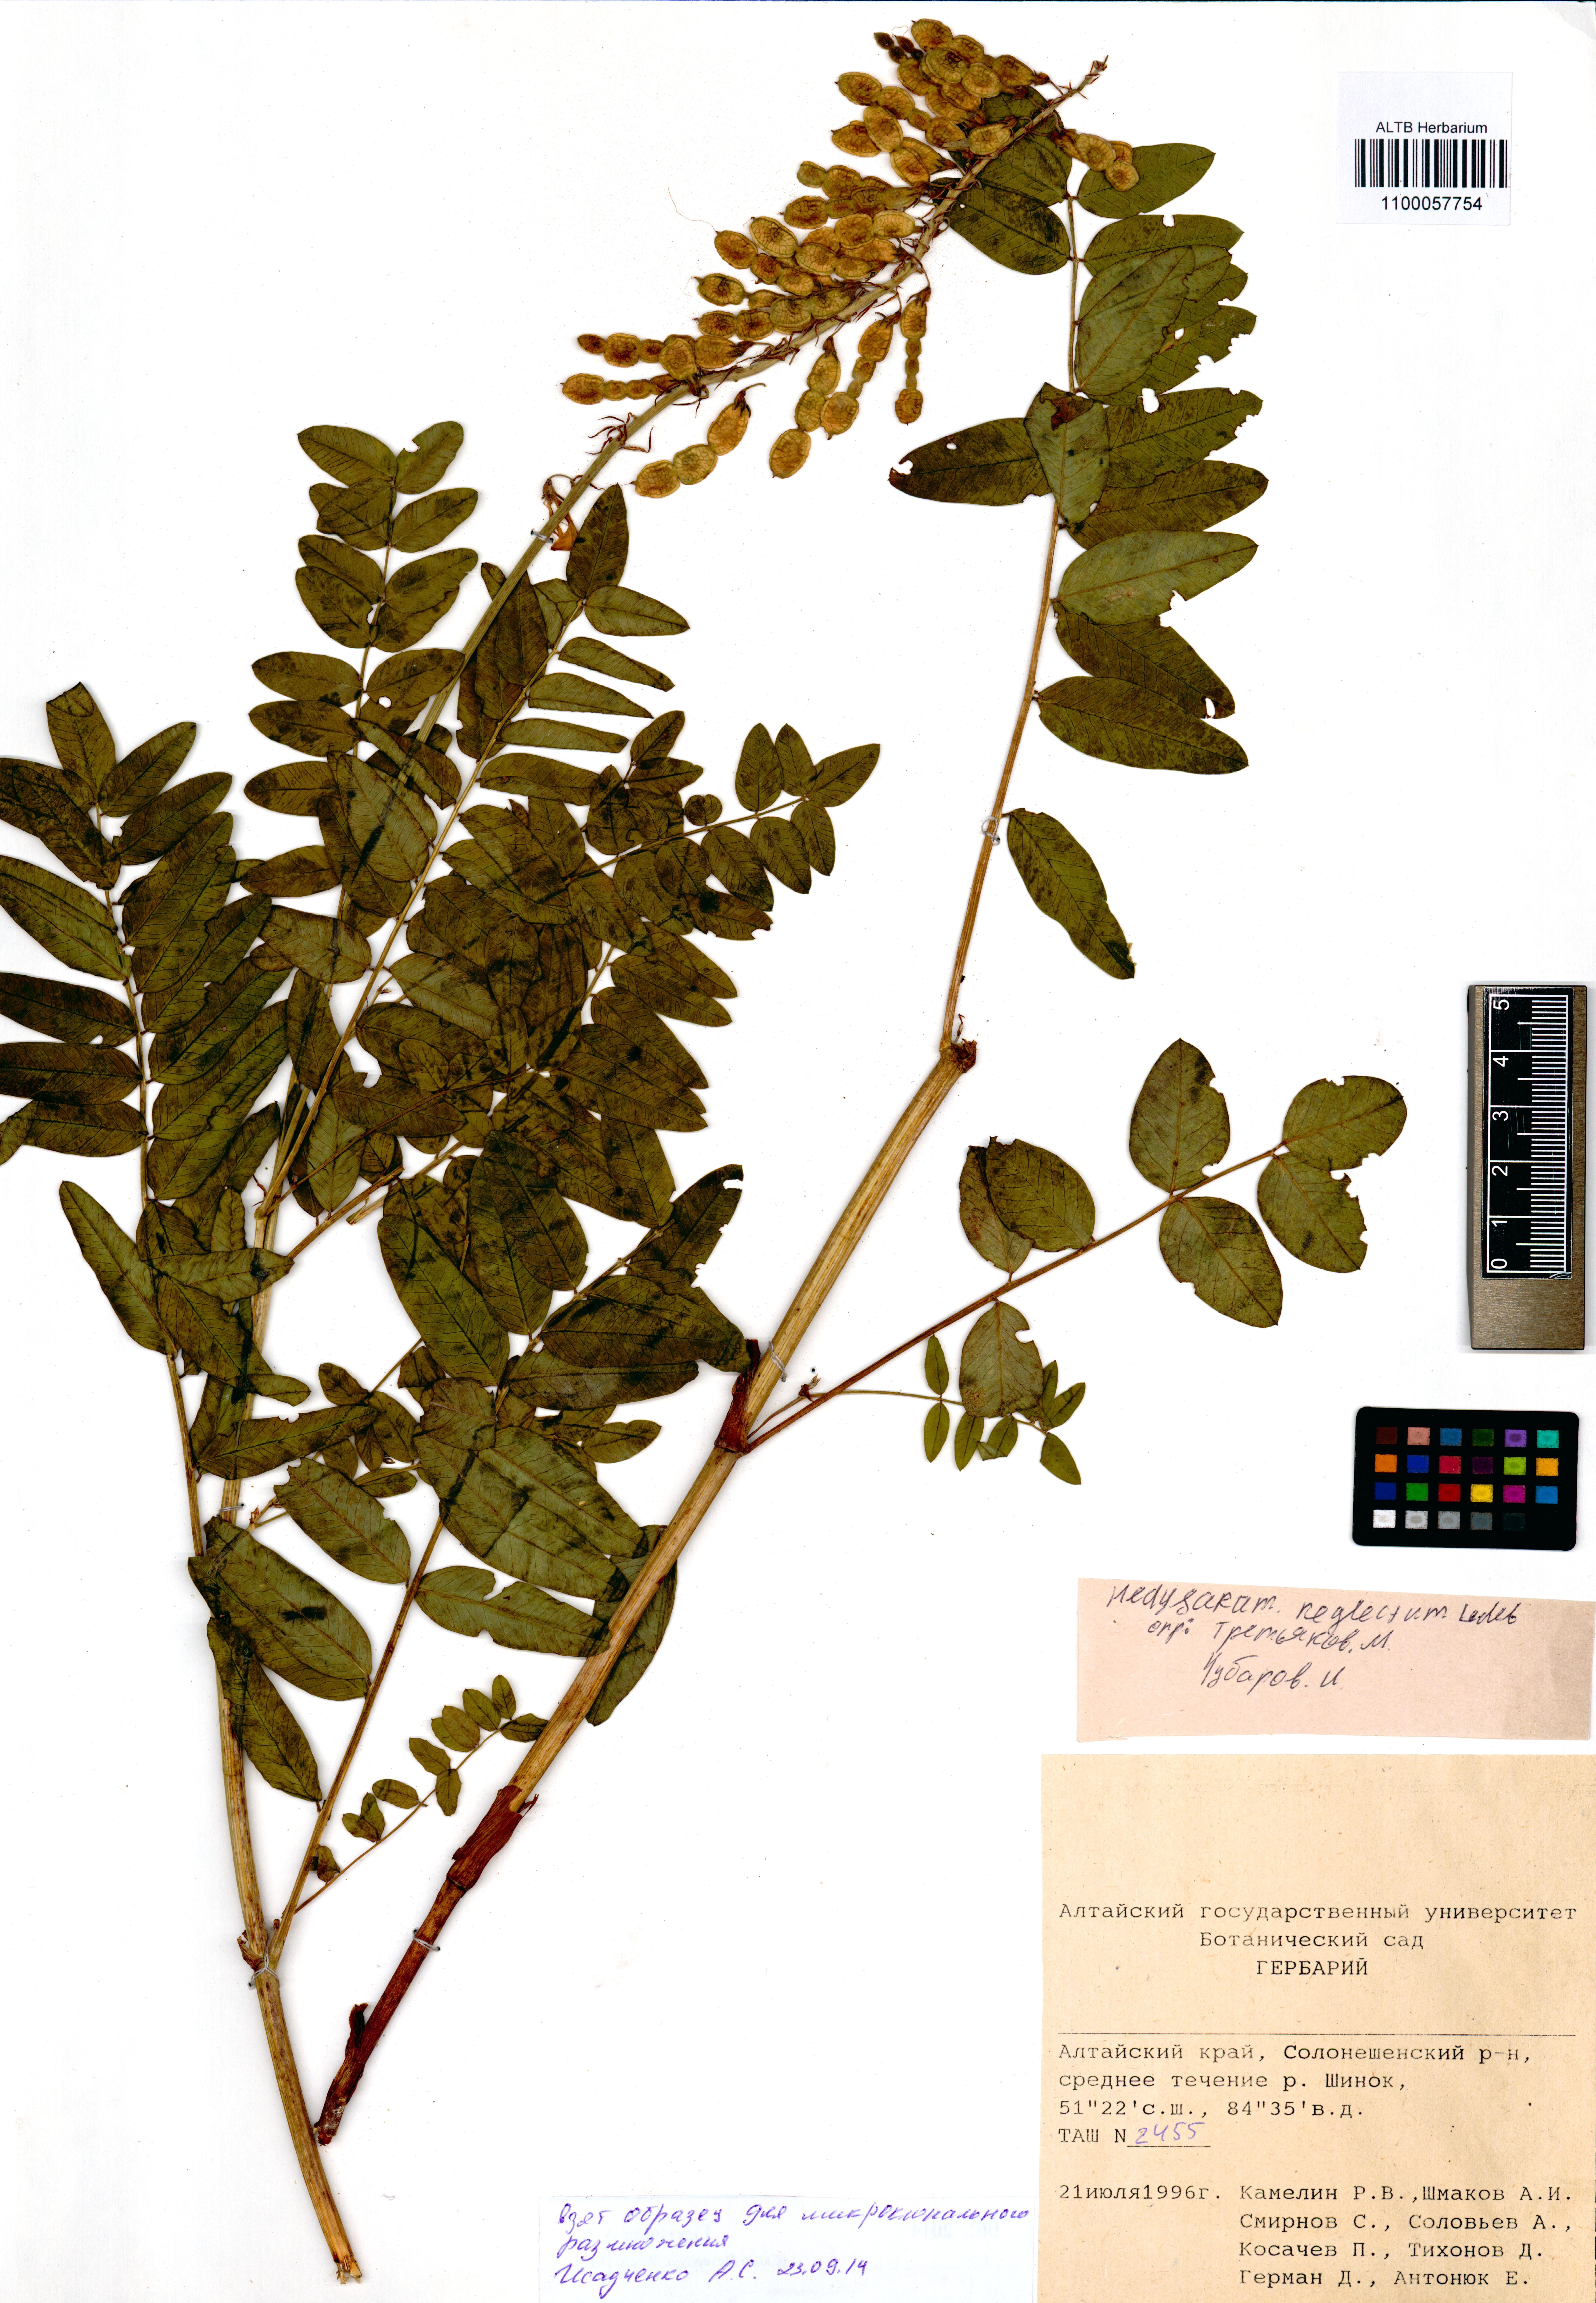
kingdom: Plantae
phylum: Tracheophyta
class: Magnoliopsida
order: Fabales
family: Fabaceae
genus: Hedysarum
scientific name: Hedysarum neglectum
